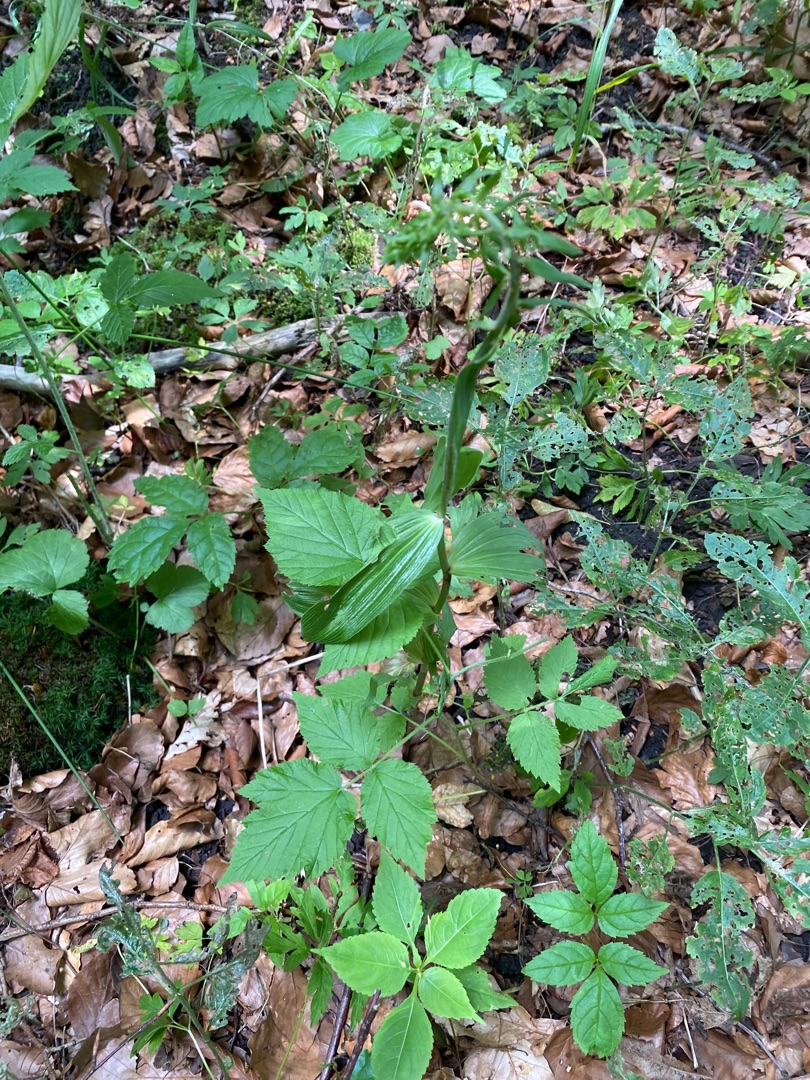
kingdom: Plantae
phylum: Tracheophyta
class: Liliopsida
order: Asparagales
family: Orchidaceae
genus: Epipactis
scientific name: Epipactis helleborine
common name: Skov-hullæbe
